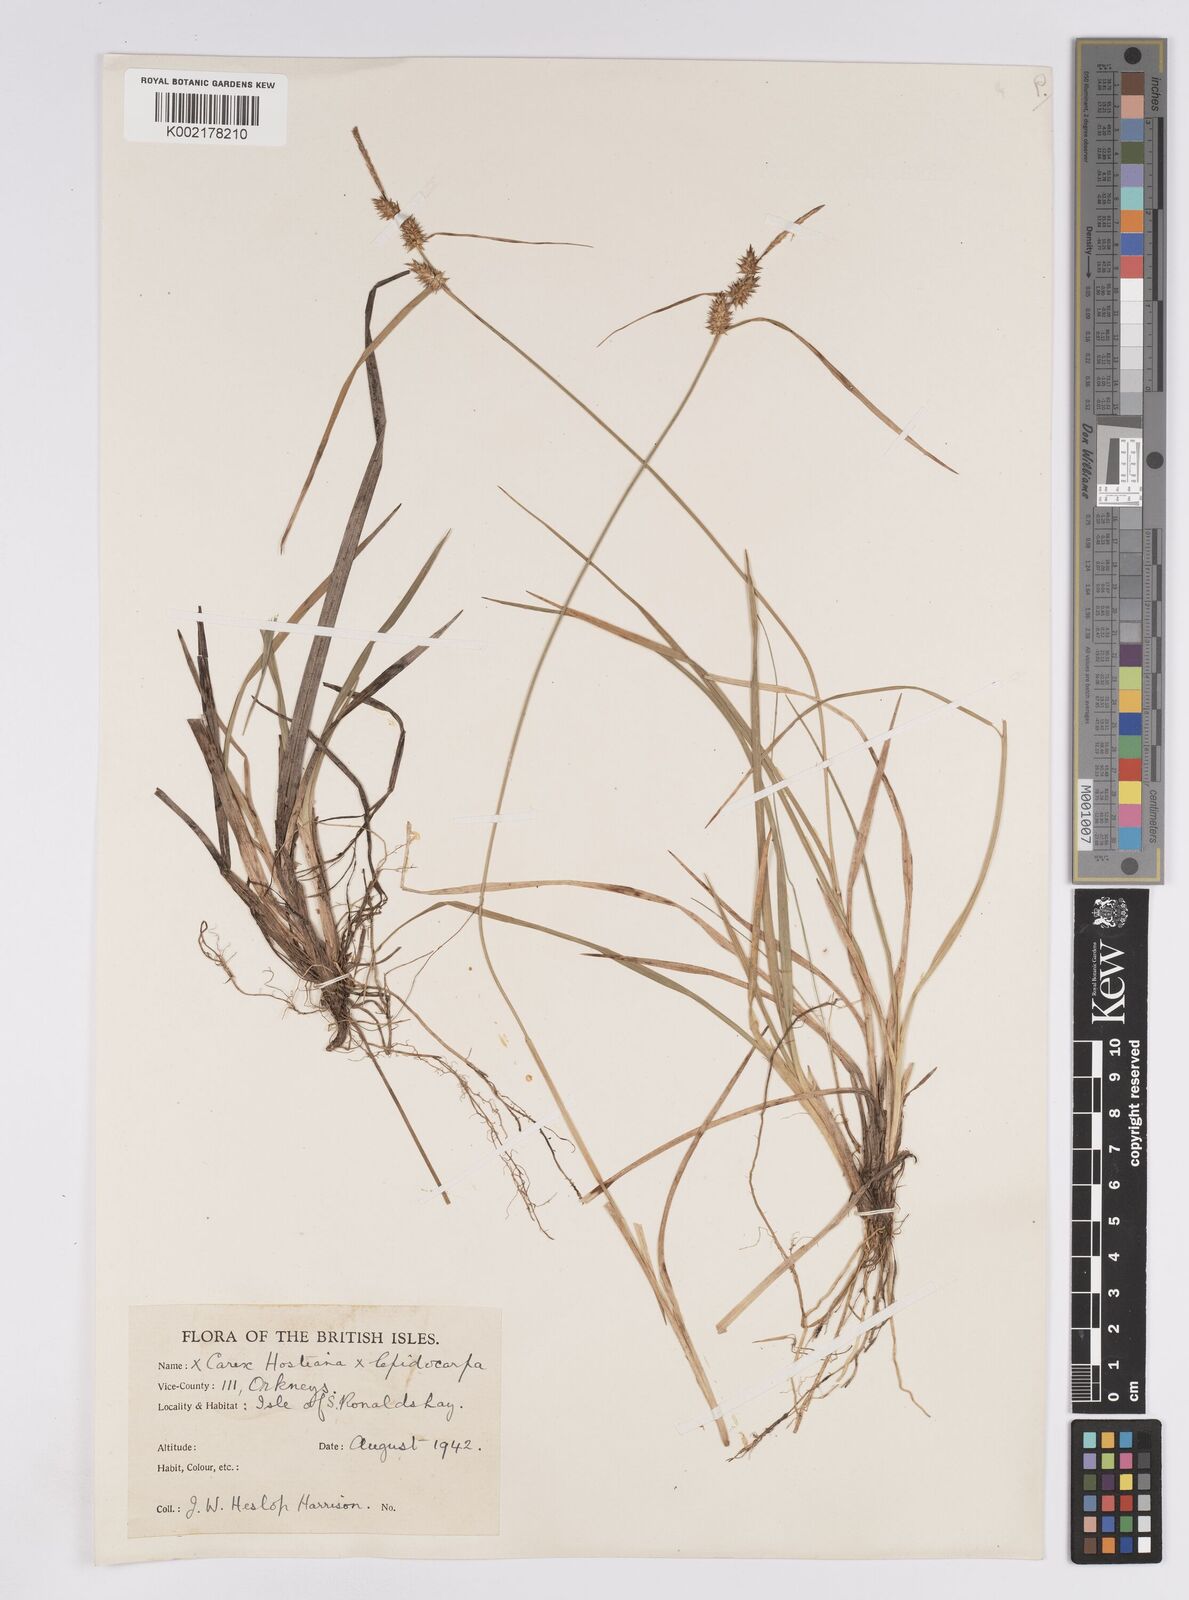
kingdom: Plantae
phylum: Tracheophyta
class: Liliopsida
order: Poales
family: Cyperaceae
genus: Carex
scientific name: Carex demissa
